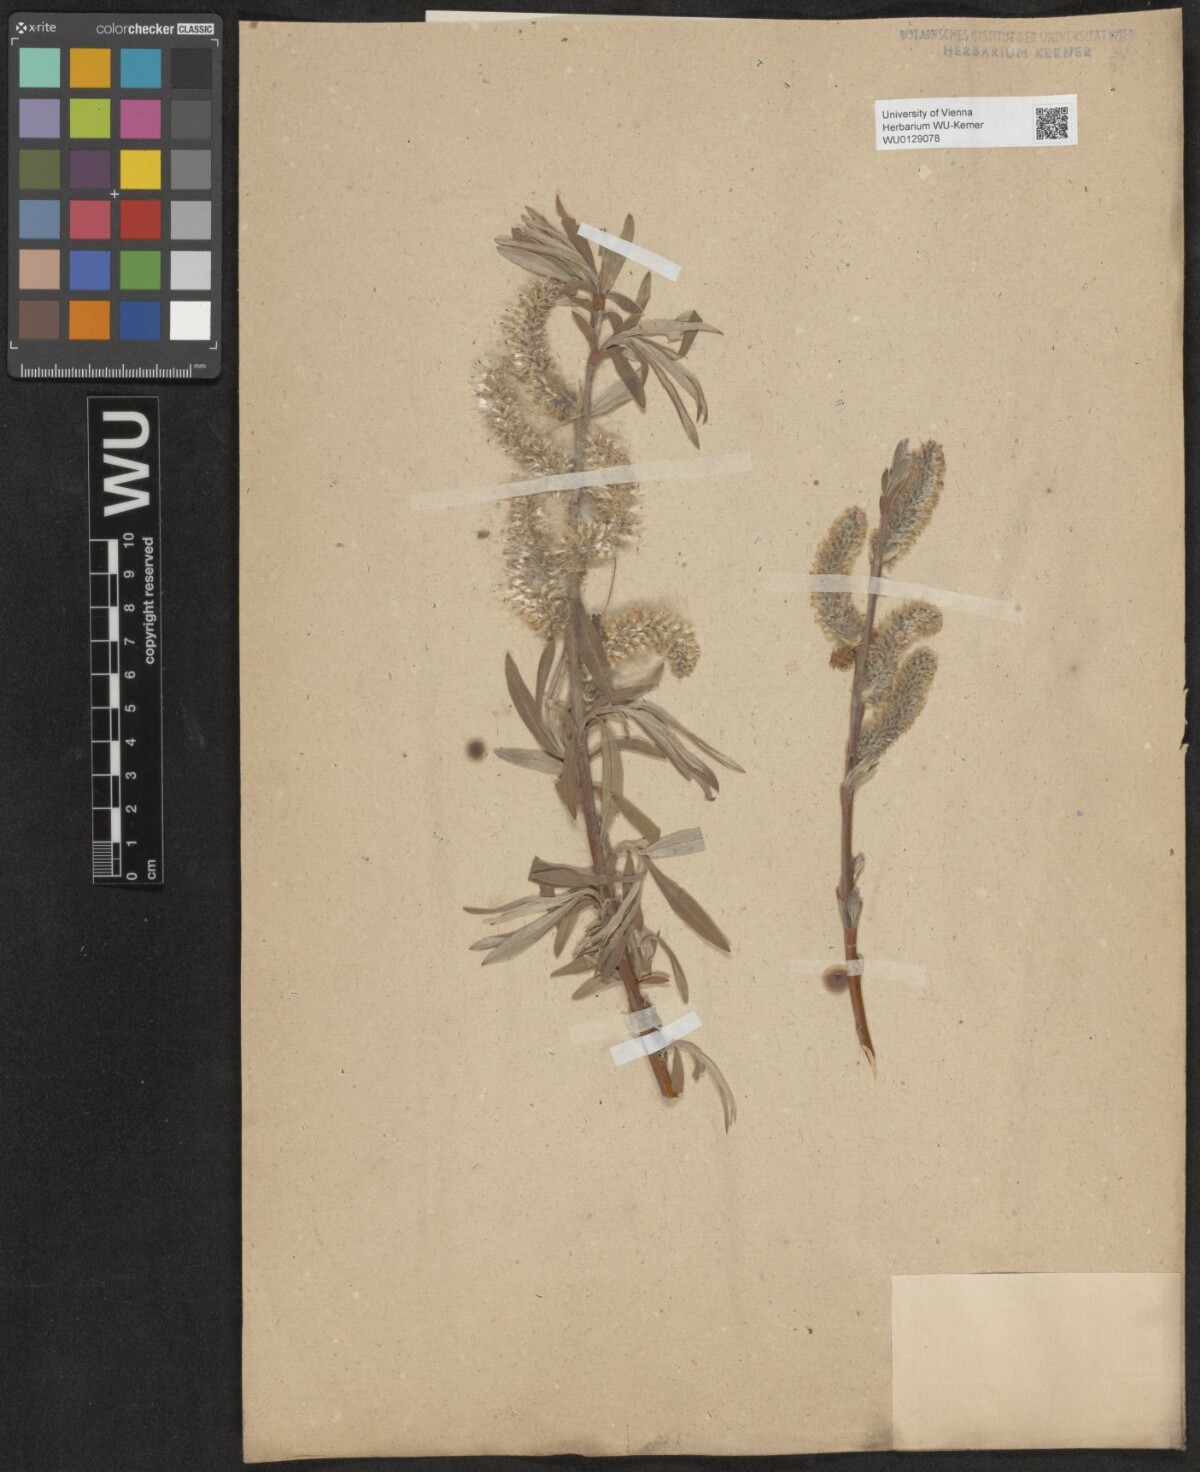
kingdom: Plantae
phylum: Tracheophyta
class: Magnoliopsida
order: Malpighiales
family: Salicaceae
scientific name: Salicaceae
